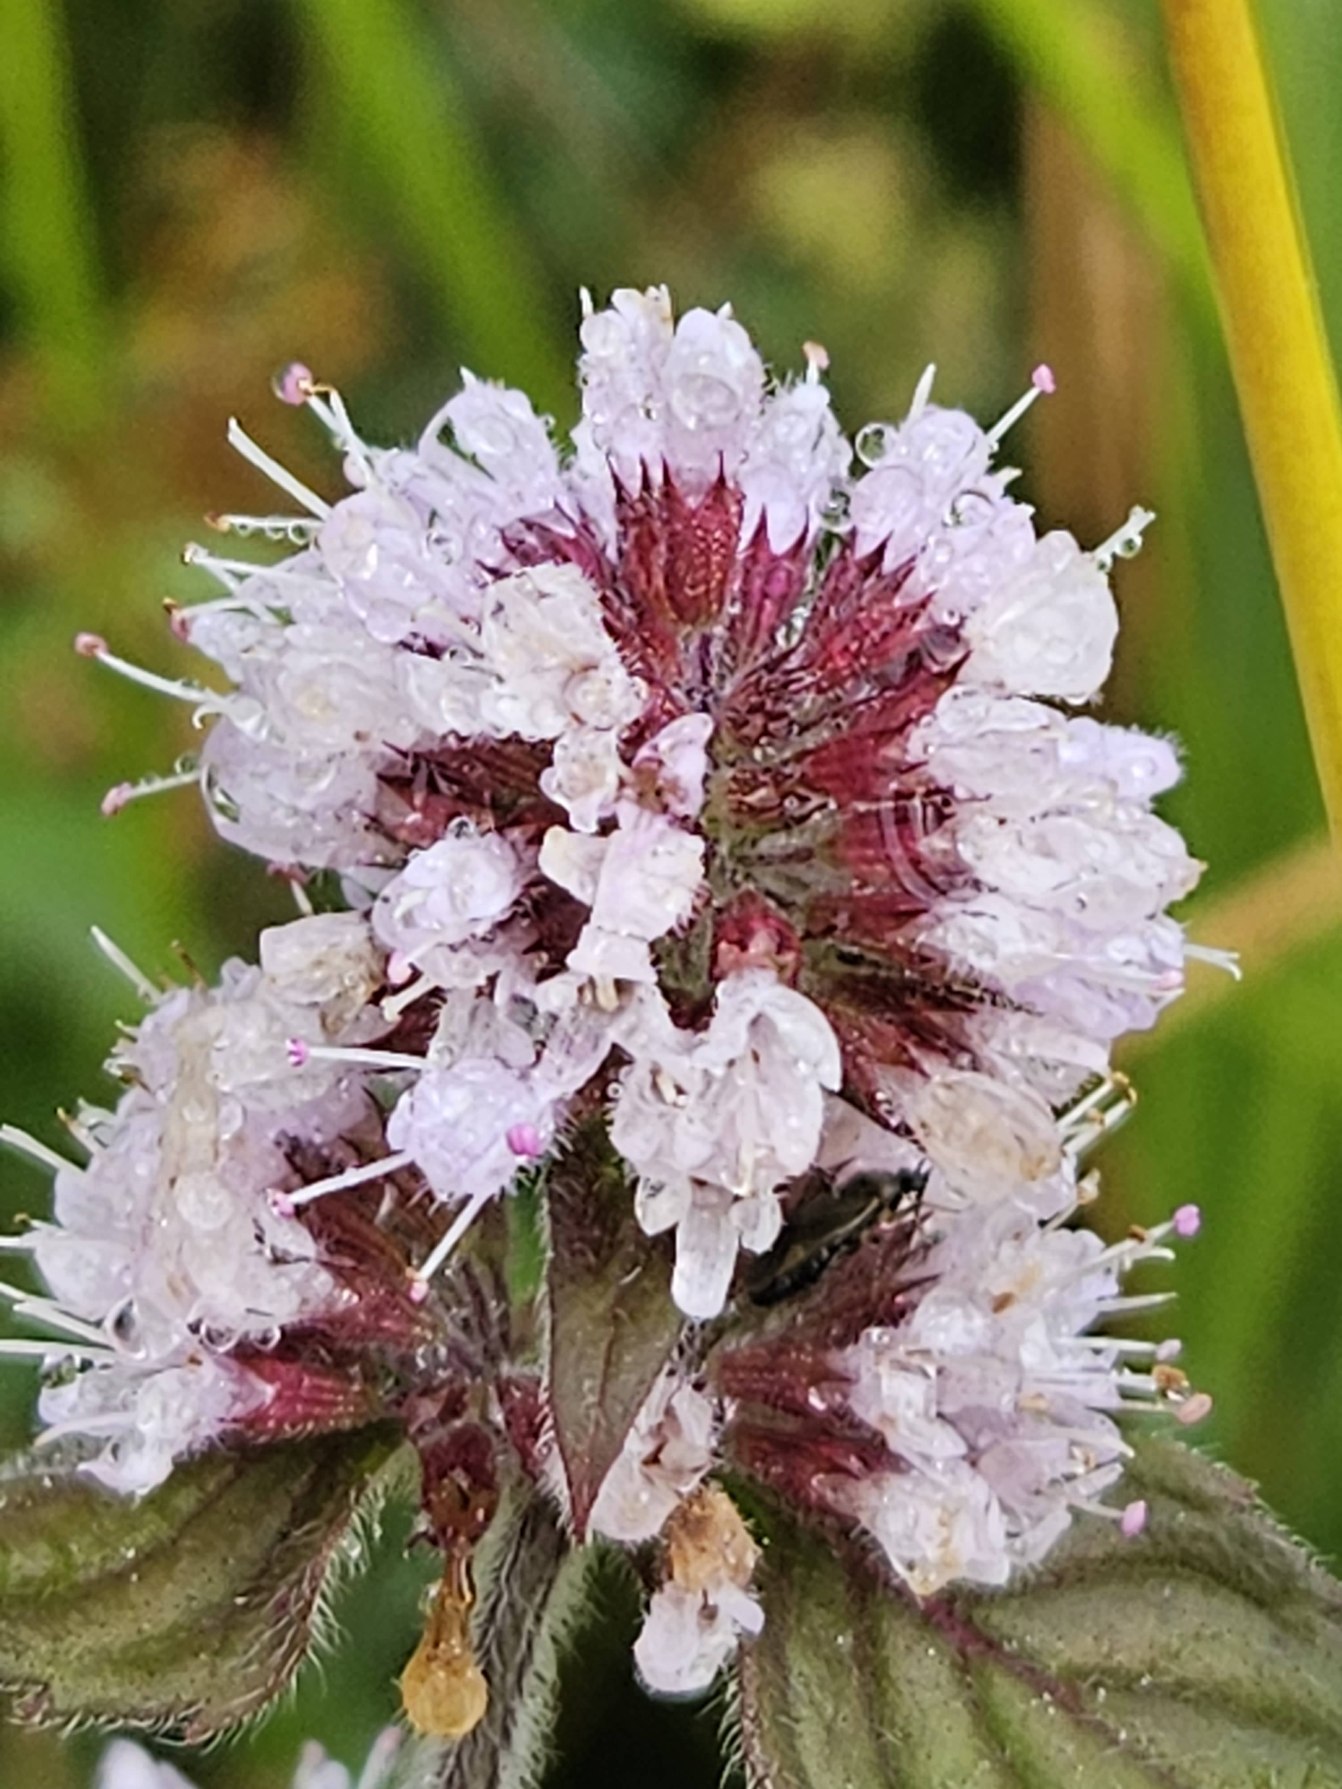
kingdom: Plantae
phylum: Tracheophyta
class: Magnoliopsida
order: Lamiales
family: Lamiaceae
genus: Mentha
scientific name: Mentha aquatica
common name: Vand-mynte
